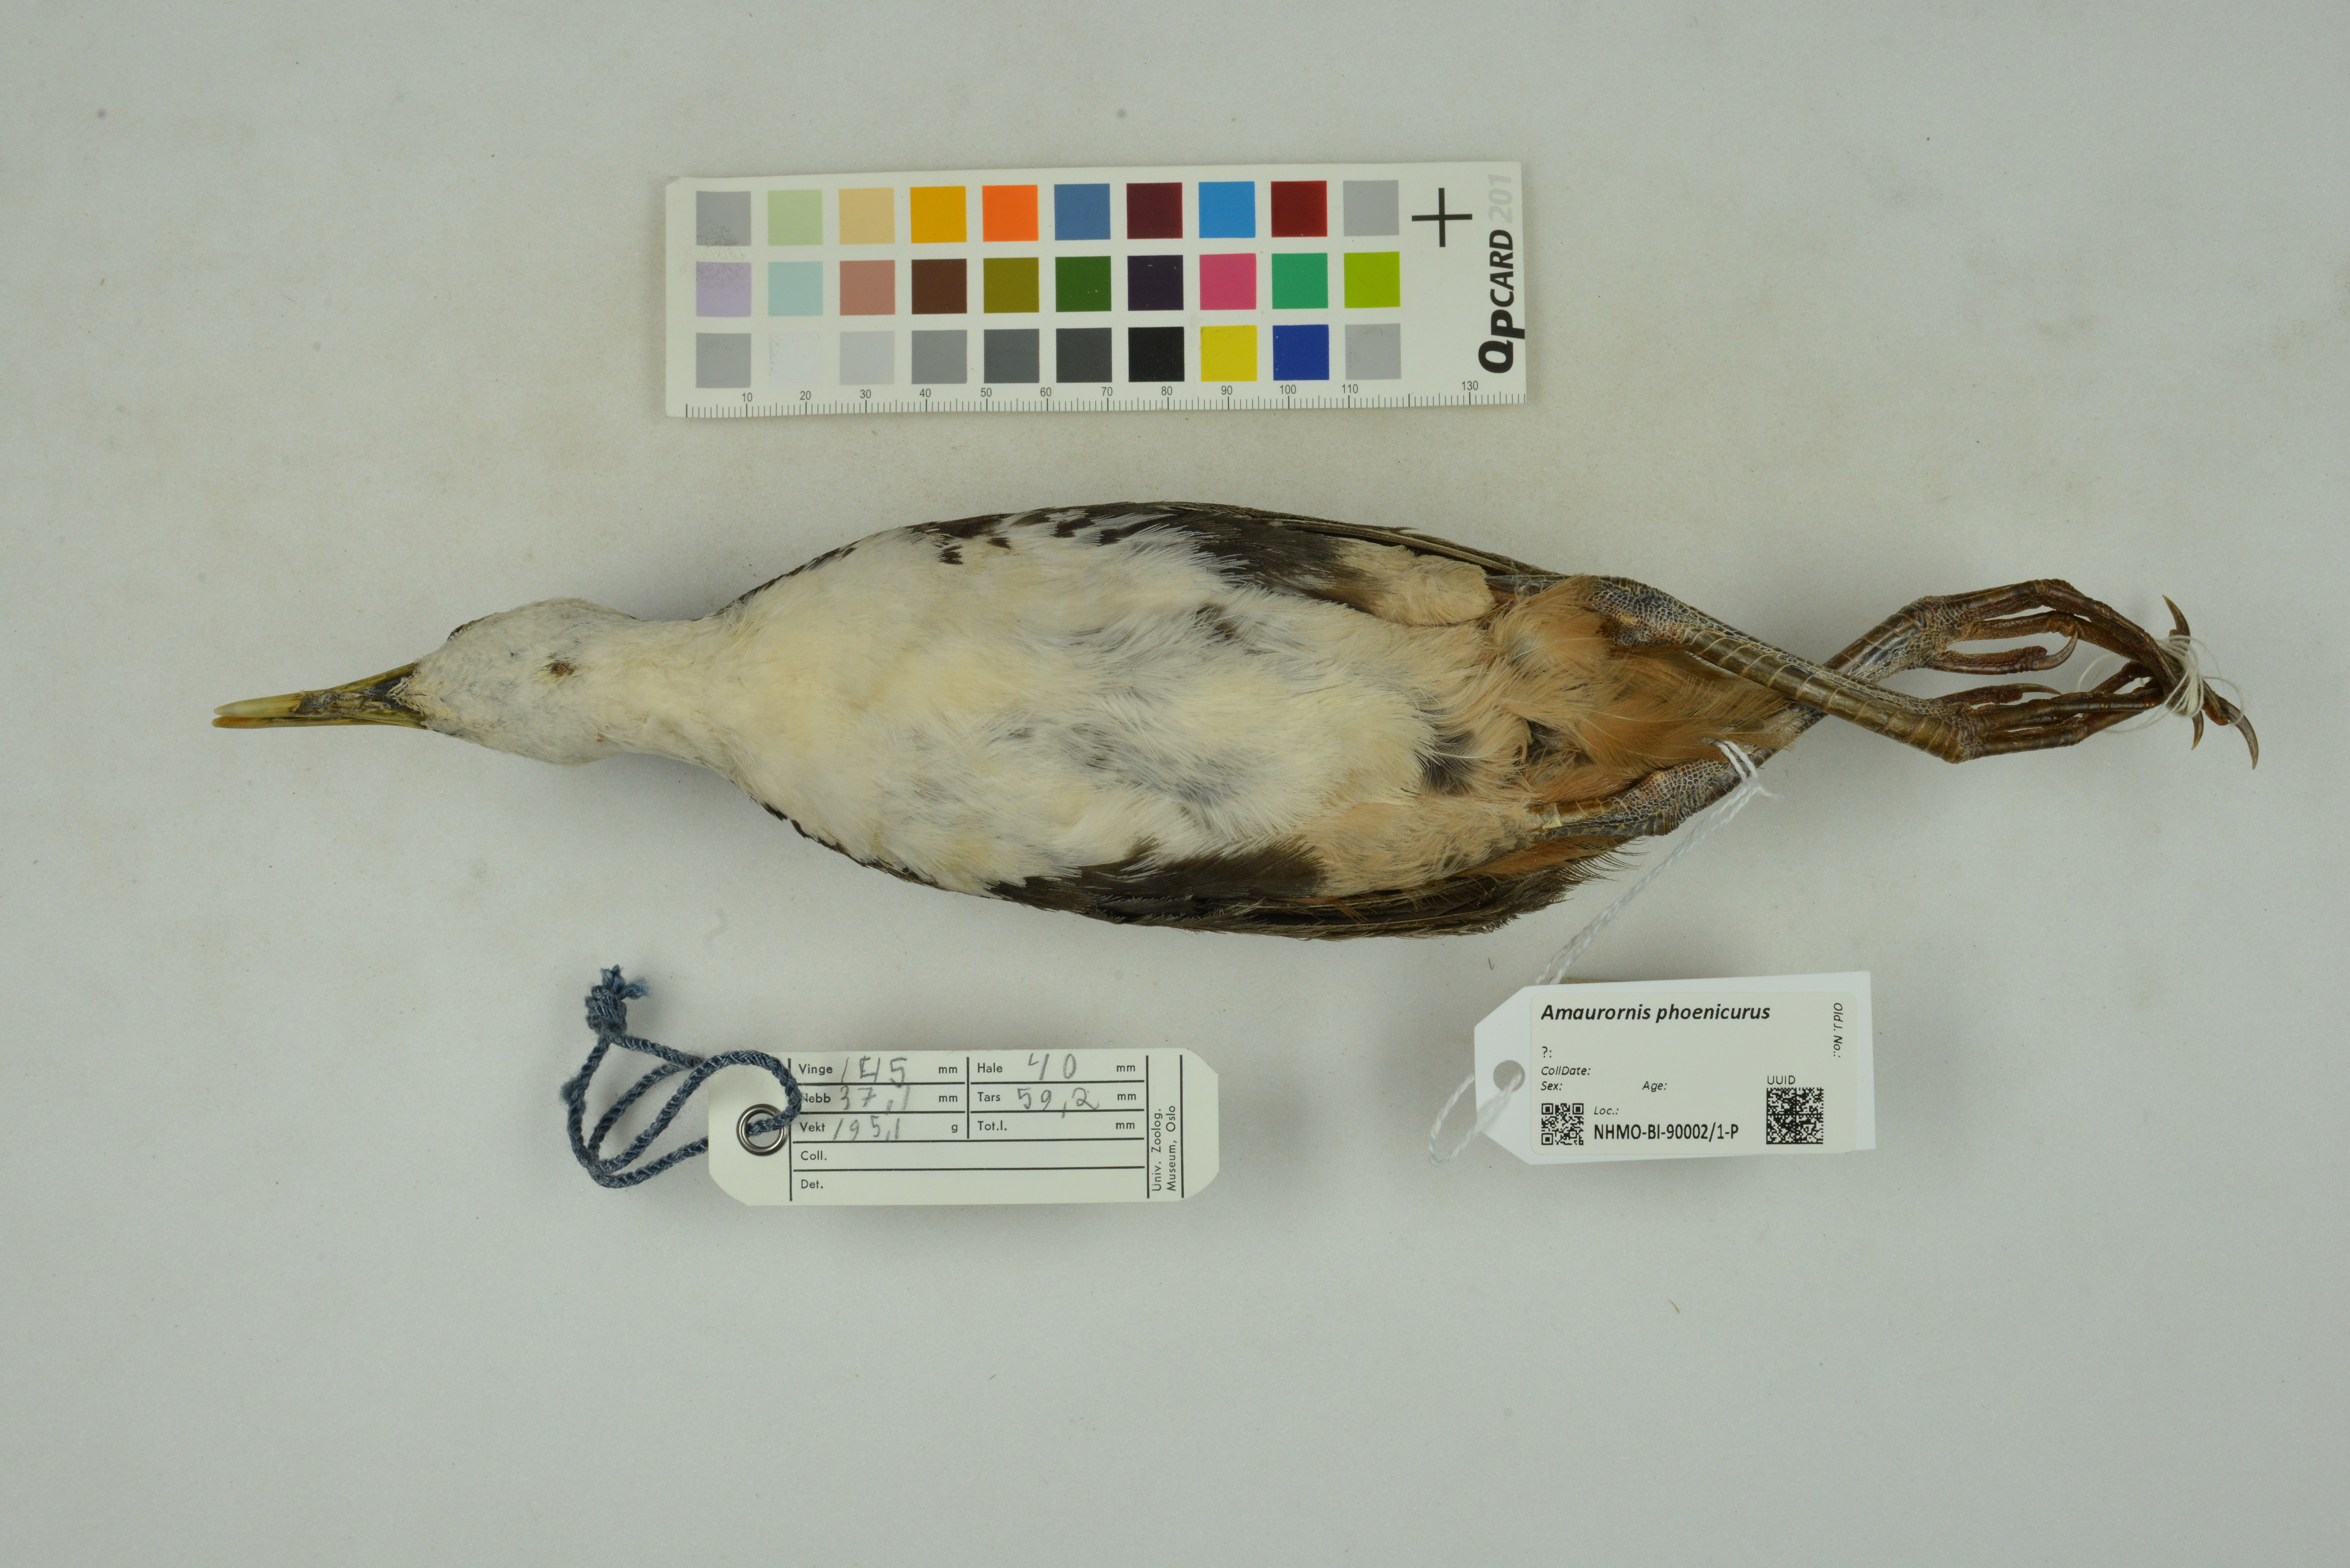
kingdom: Animalia
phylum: Chordata
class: Aves
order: Gruiformes
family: Rallidae
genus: Amaurornis
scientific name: Amaurornis phoenicurus
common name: White-breasted waterhen
